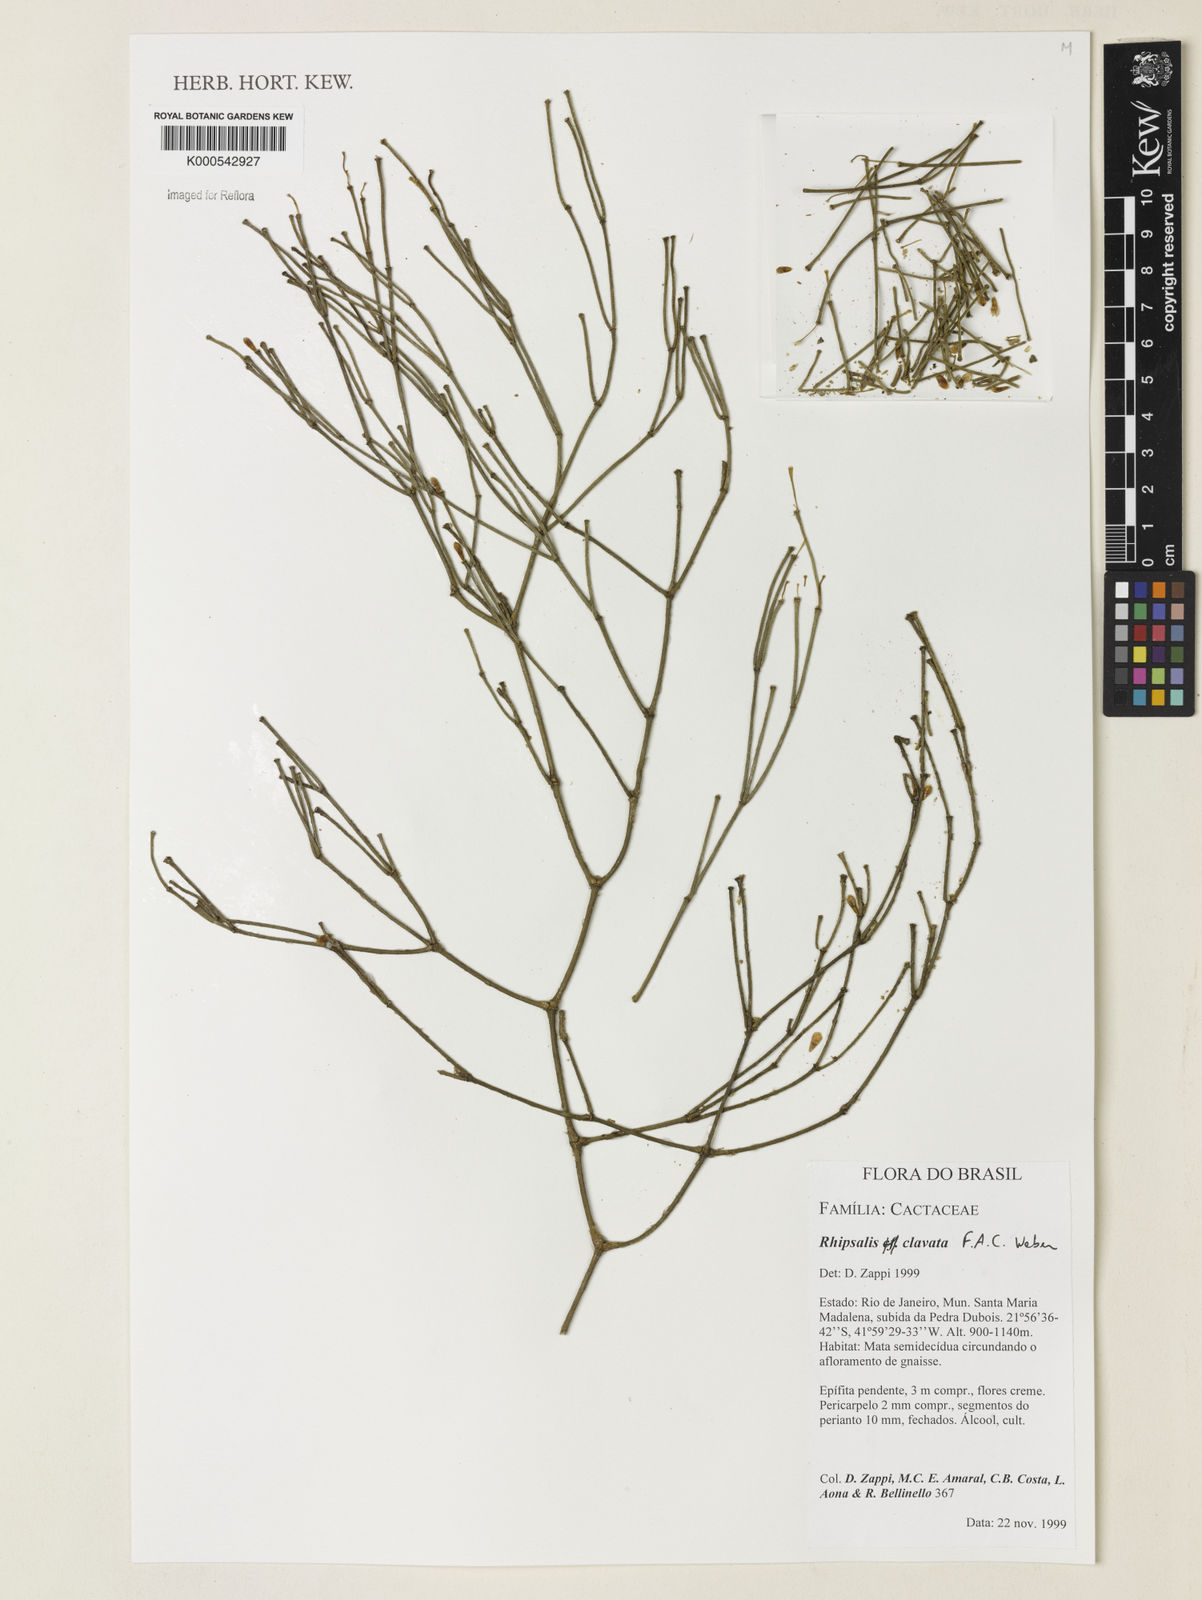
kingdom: Plantae
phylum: Tracheophyta
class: Magnoliopsida
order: Caryophyllales
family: Cactaceae
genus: Rhipsalis
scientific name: Rhipsalis clavata
